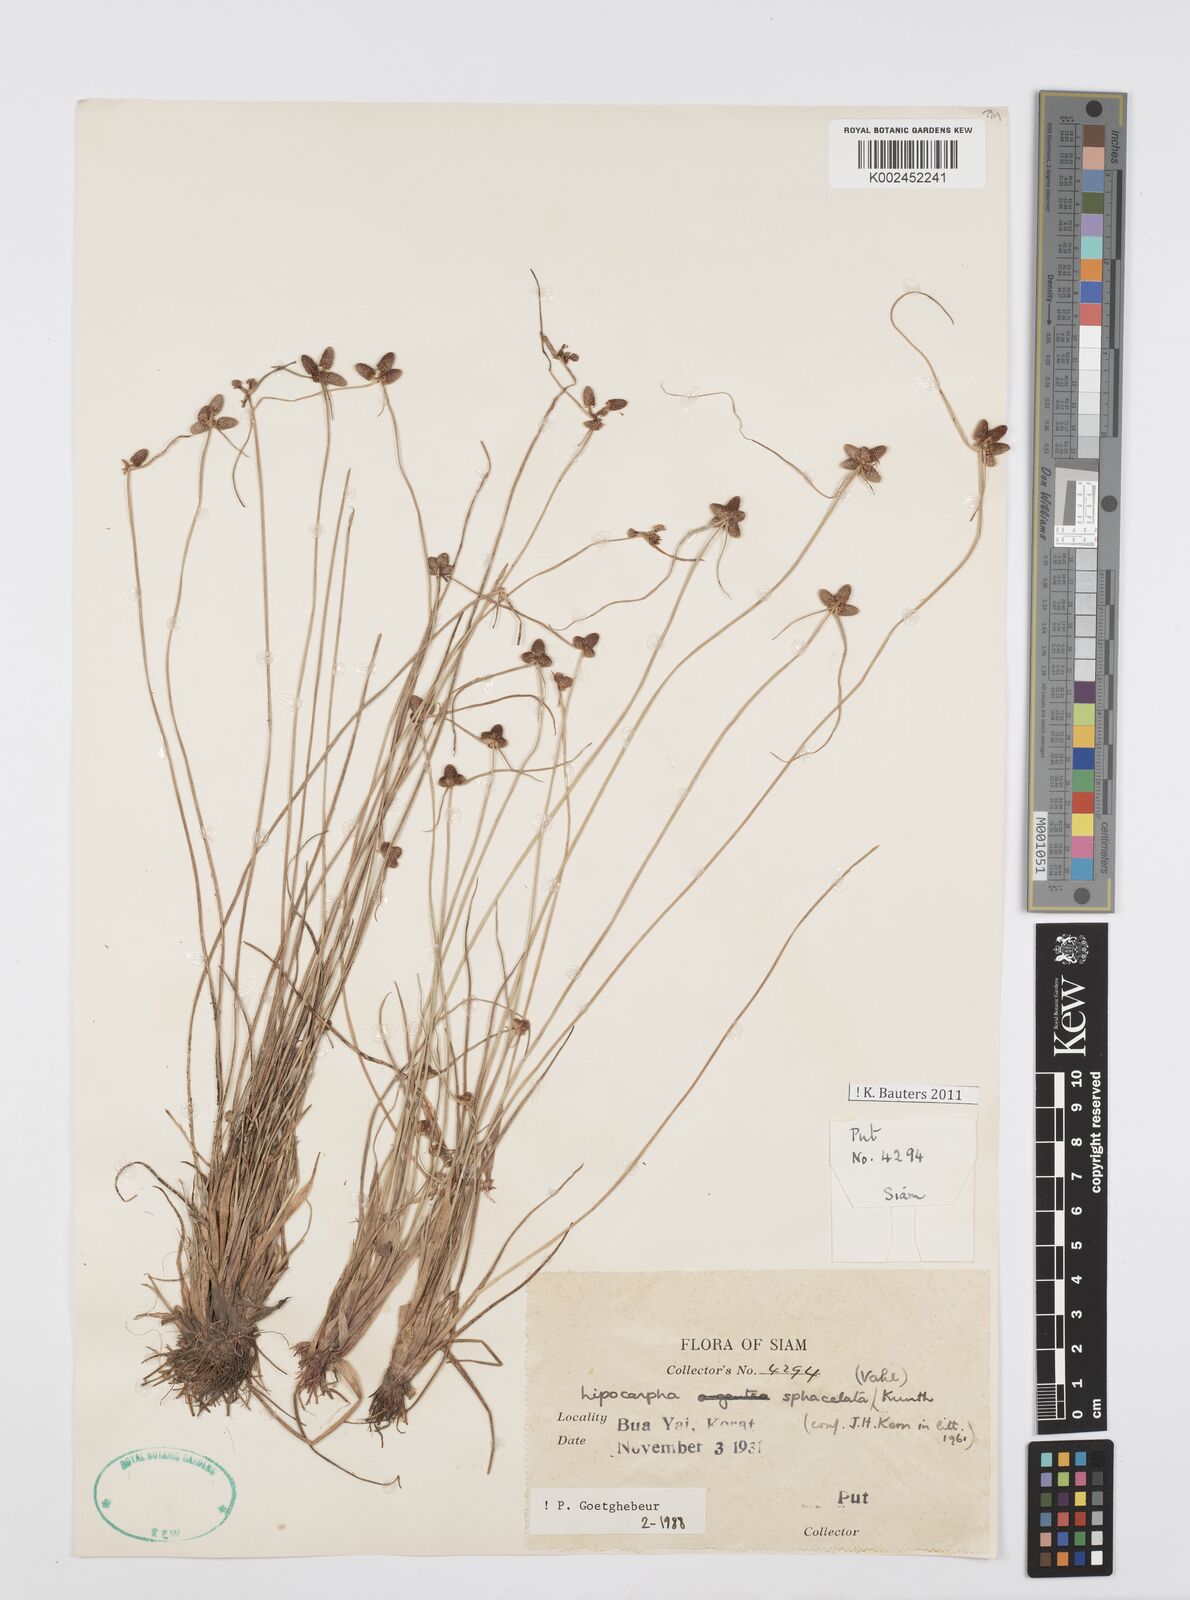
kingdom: Plantae
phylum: Tracheophyta
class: Liliopsida
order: Poales
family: Cyperaceae
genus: Cyperus
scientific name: Cyperus sphacelatus
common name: Roadside flatsedge
